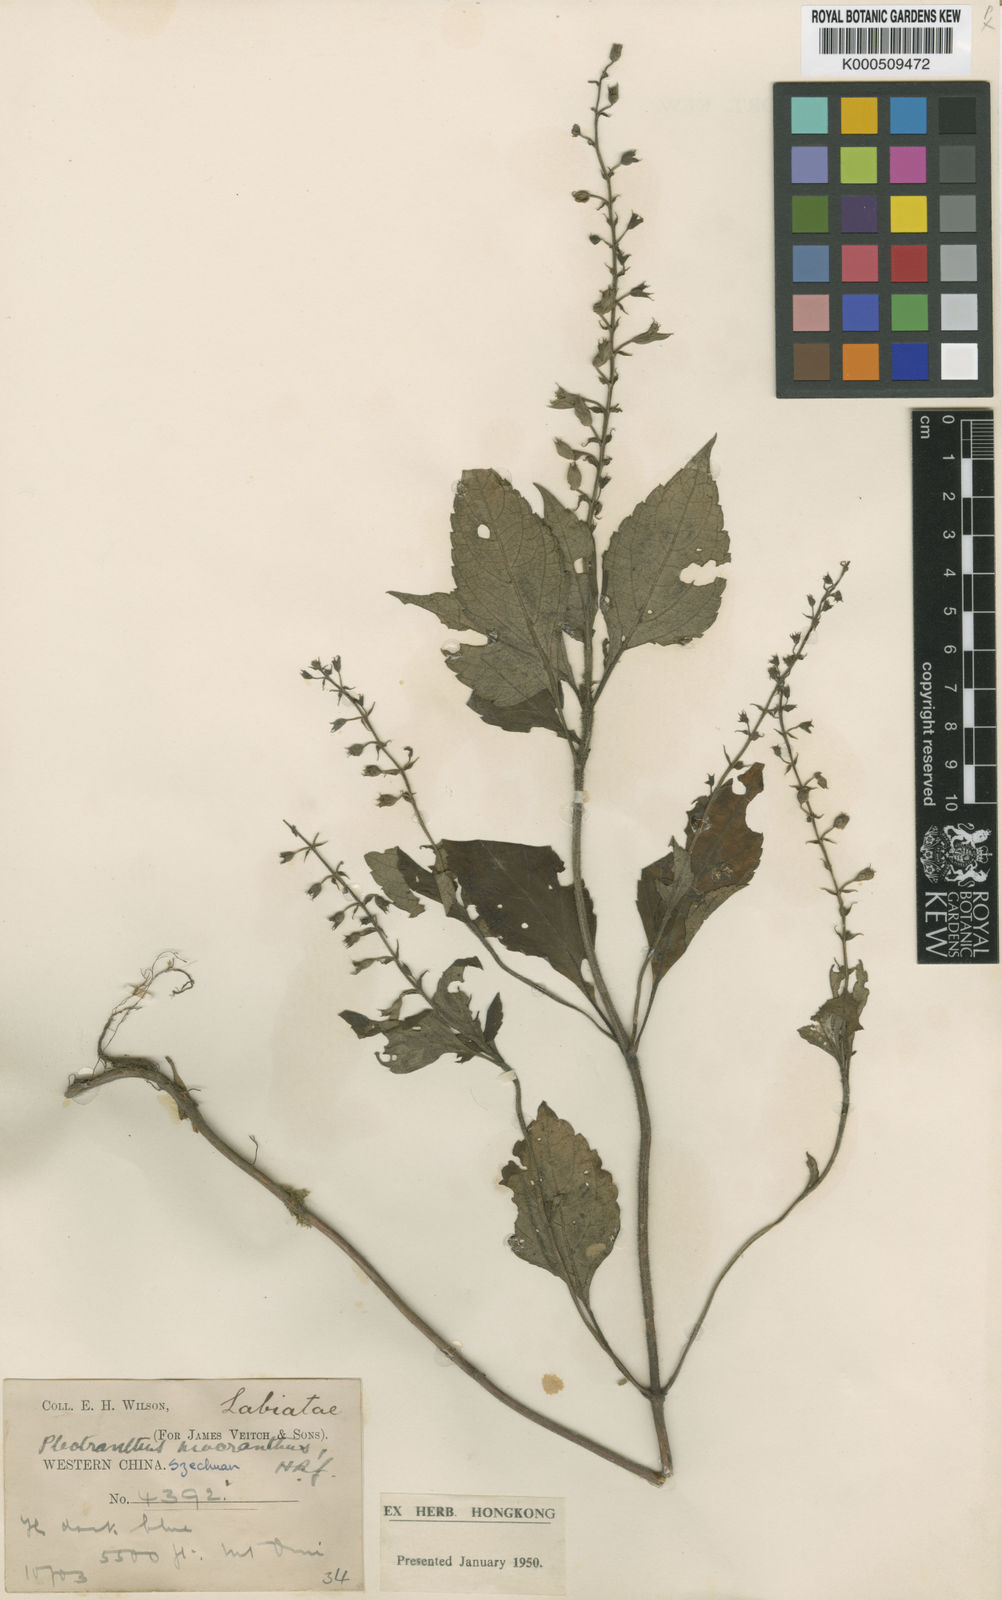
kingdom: Plantae
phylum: Tracheophyta
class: Magnoliopsida
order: Lamiales
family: Lamiaceae
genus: Siphocranion
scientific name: Siphocranion macranthum
